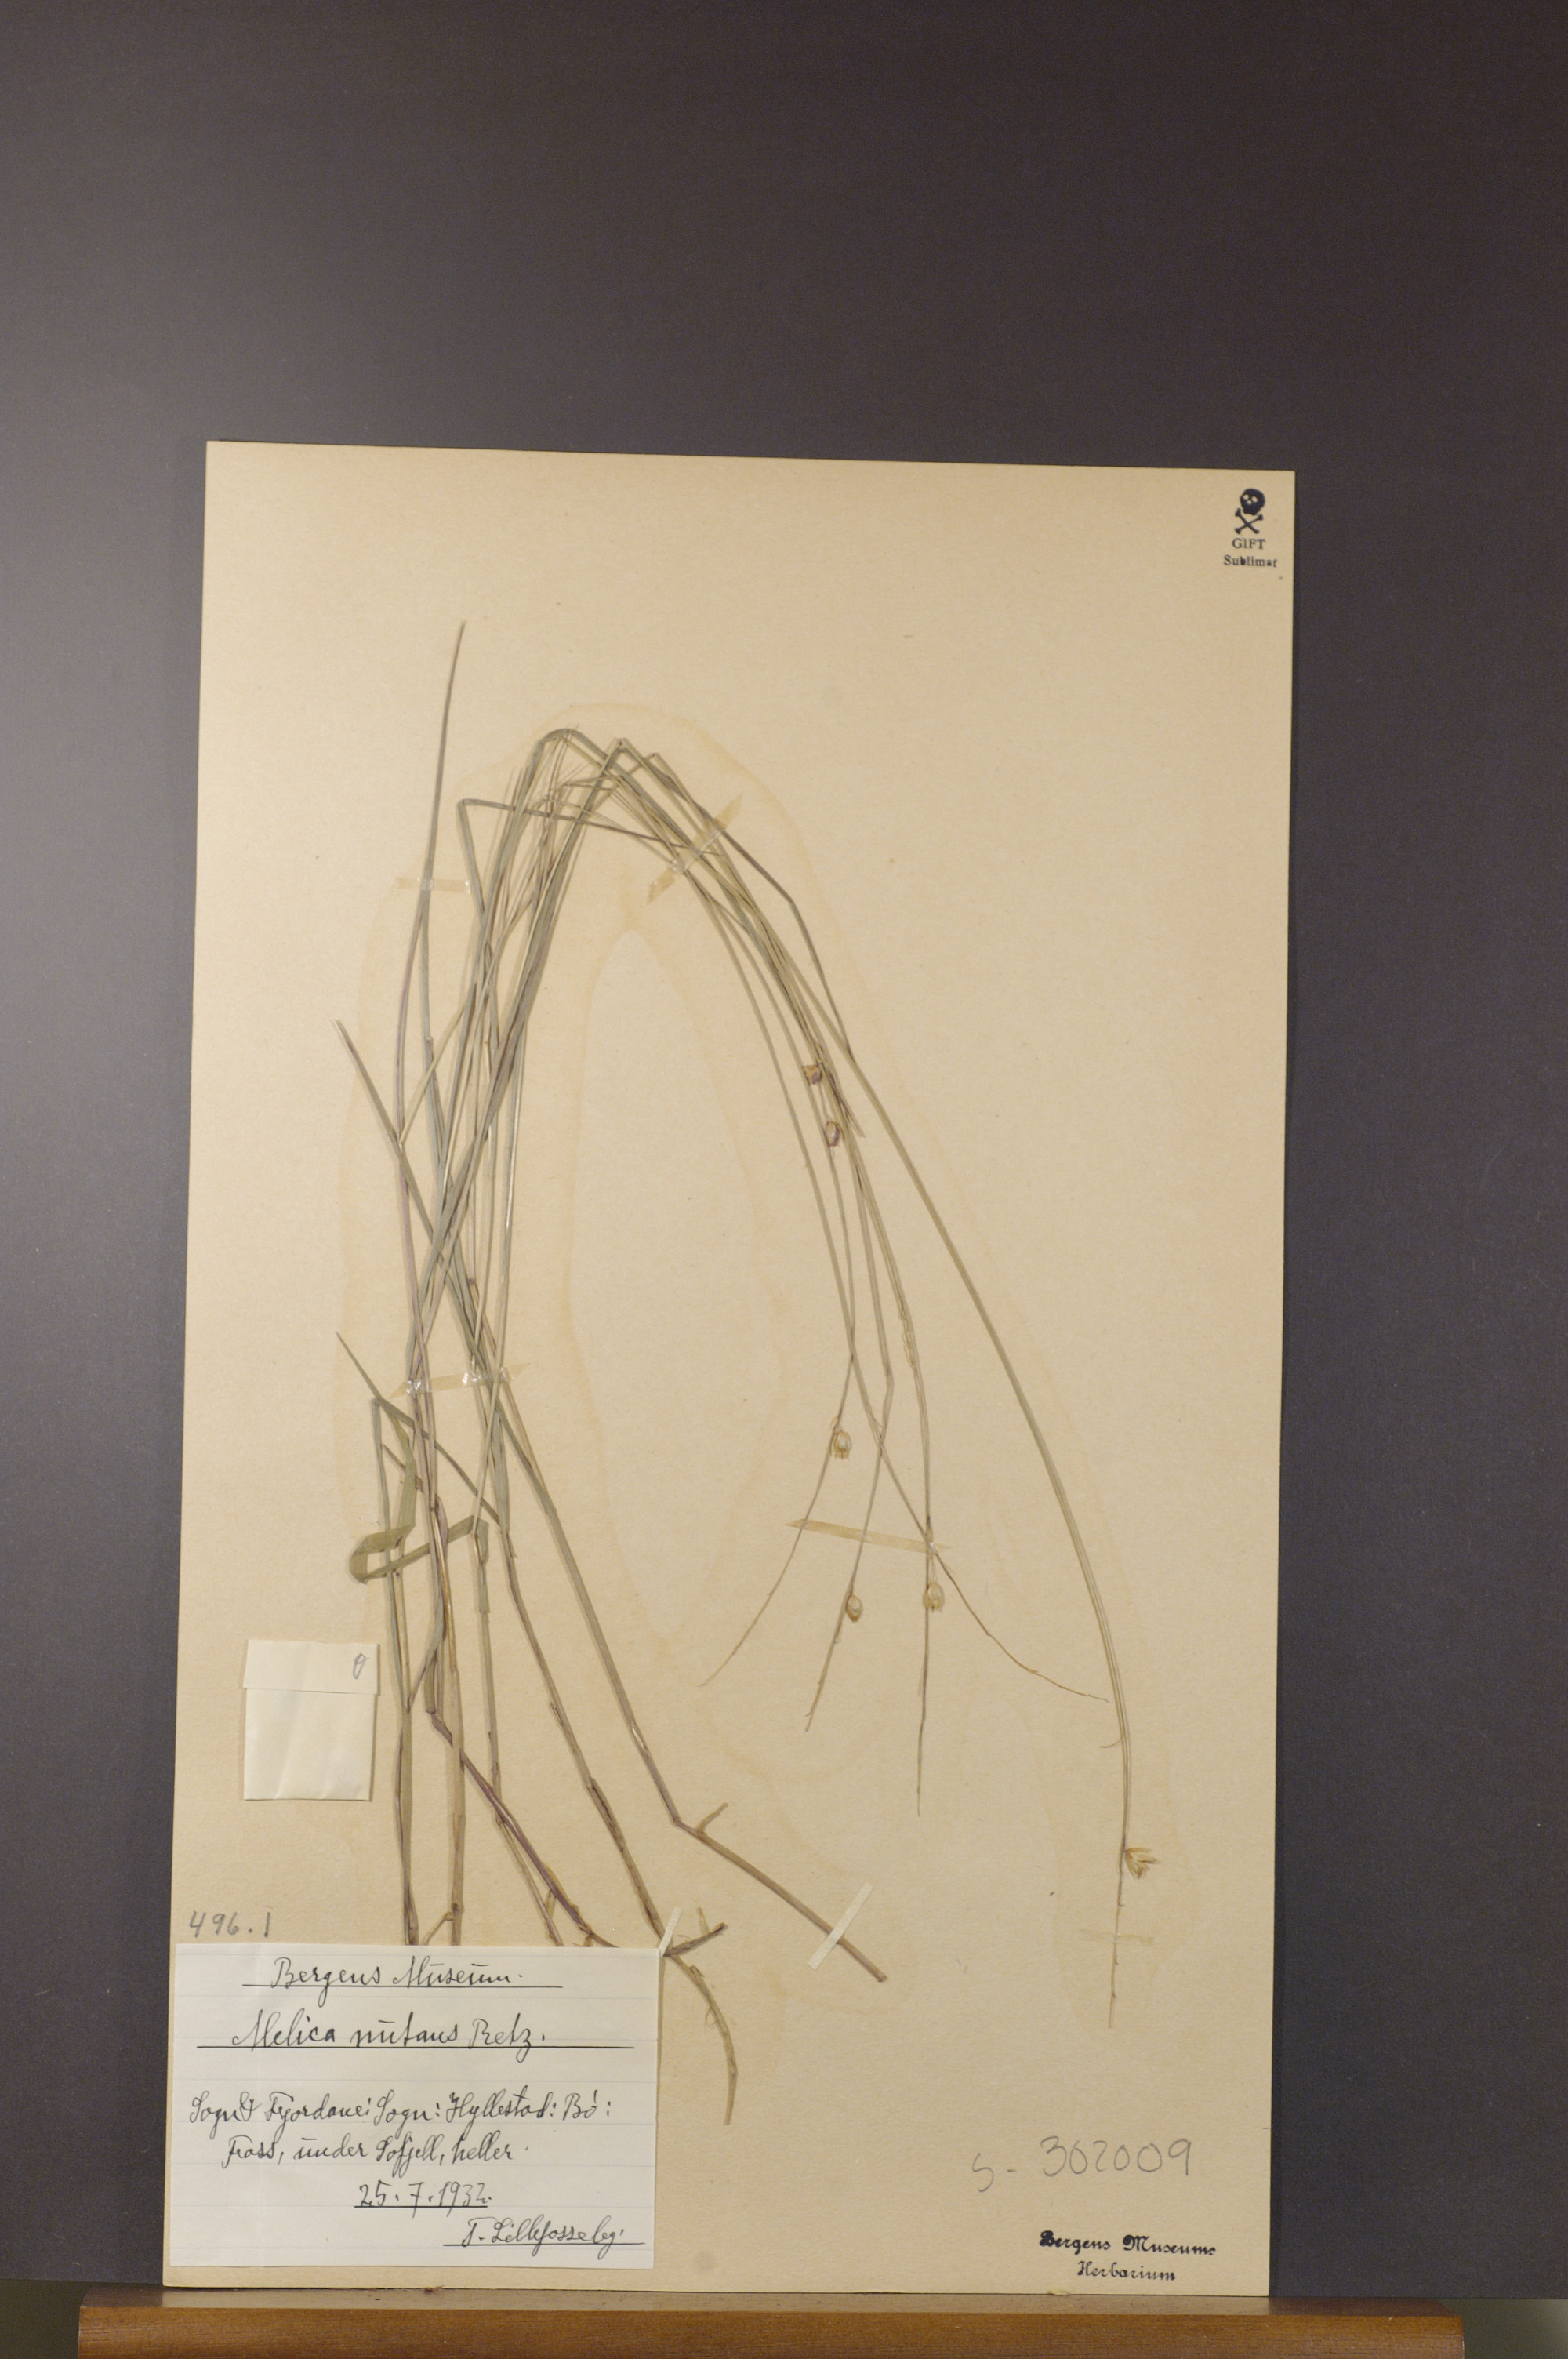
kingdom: Plantae
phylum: Tracheophyta
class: Liliopsida
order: Poales
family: Poaceae
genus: Melica
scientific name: Melica nutans
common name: Mountain melick
